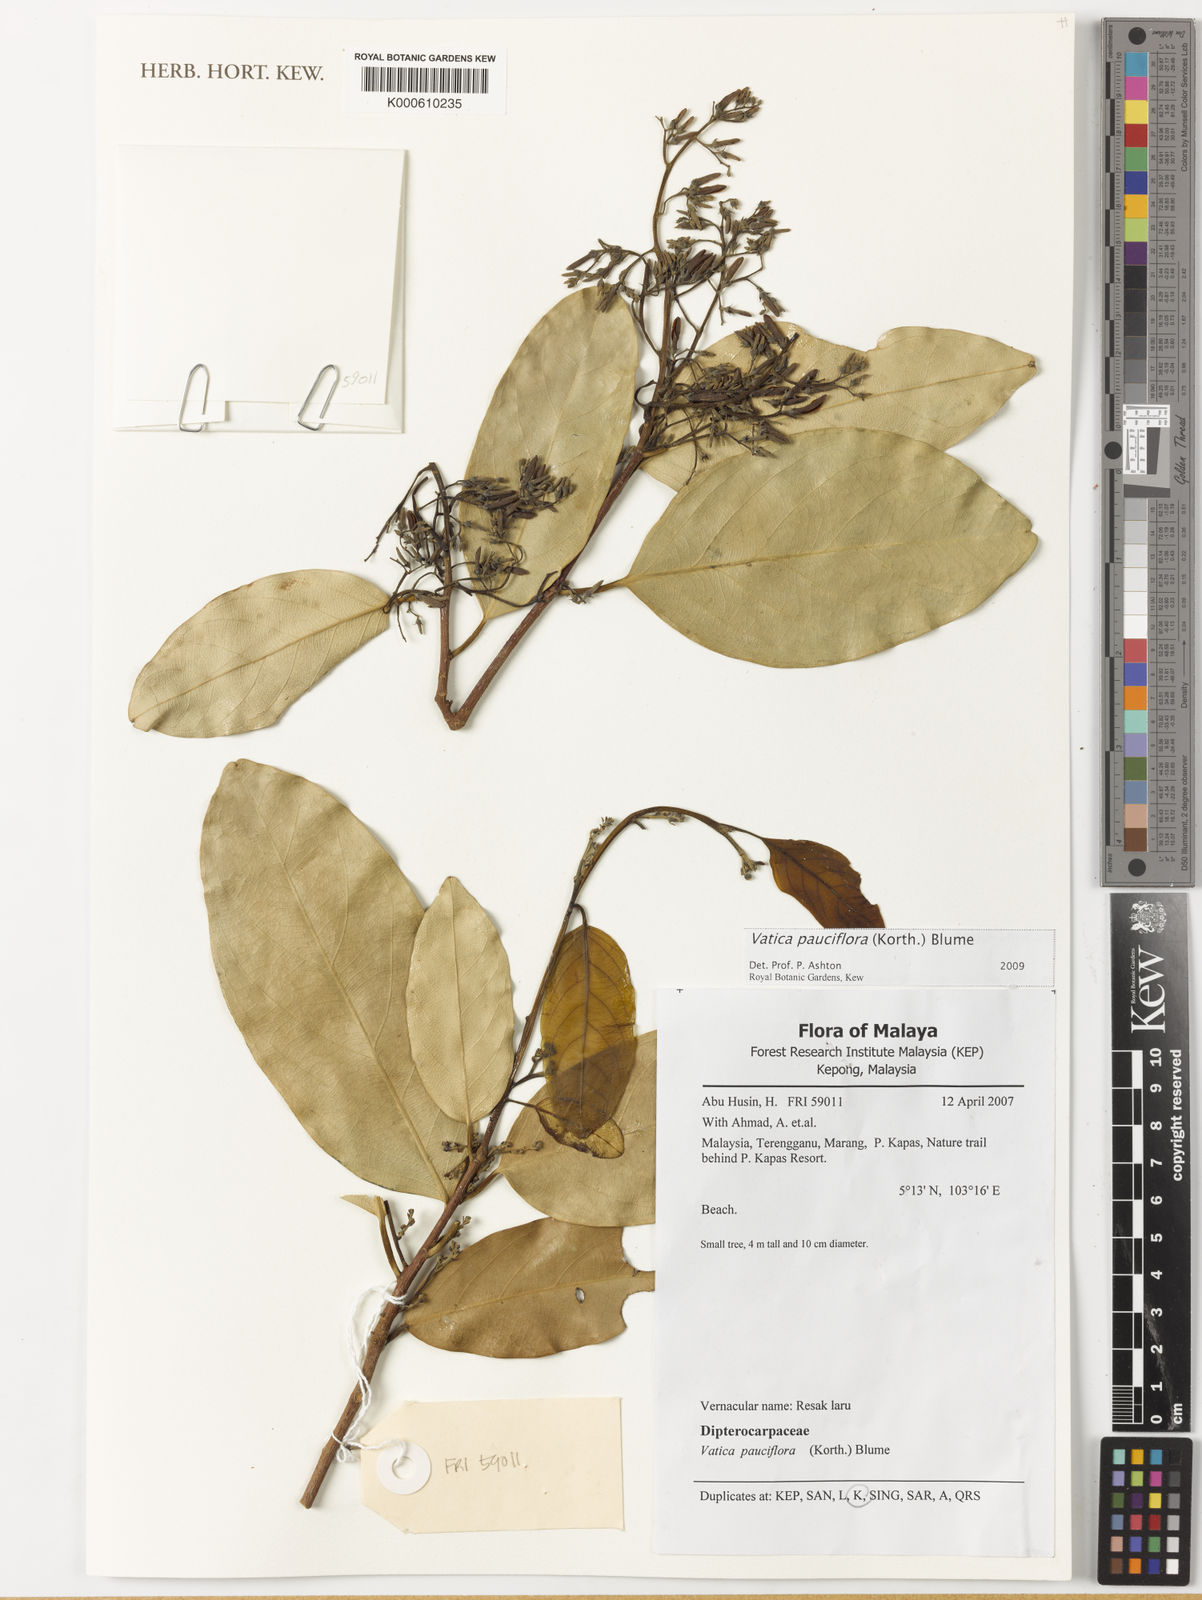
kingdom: Plantae
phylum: Tracheophyta
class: Magnoliopsida
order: Malvales
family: Dipterocarpaceae
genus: Vatica
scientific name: Vatica pauciflora
